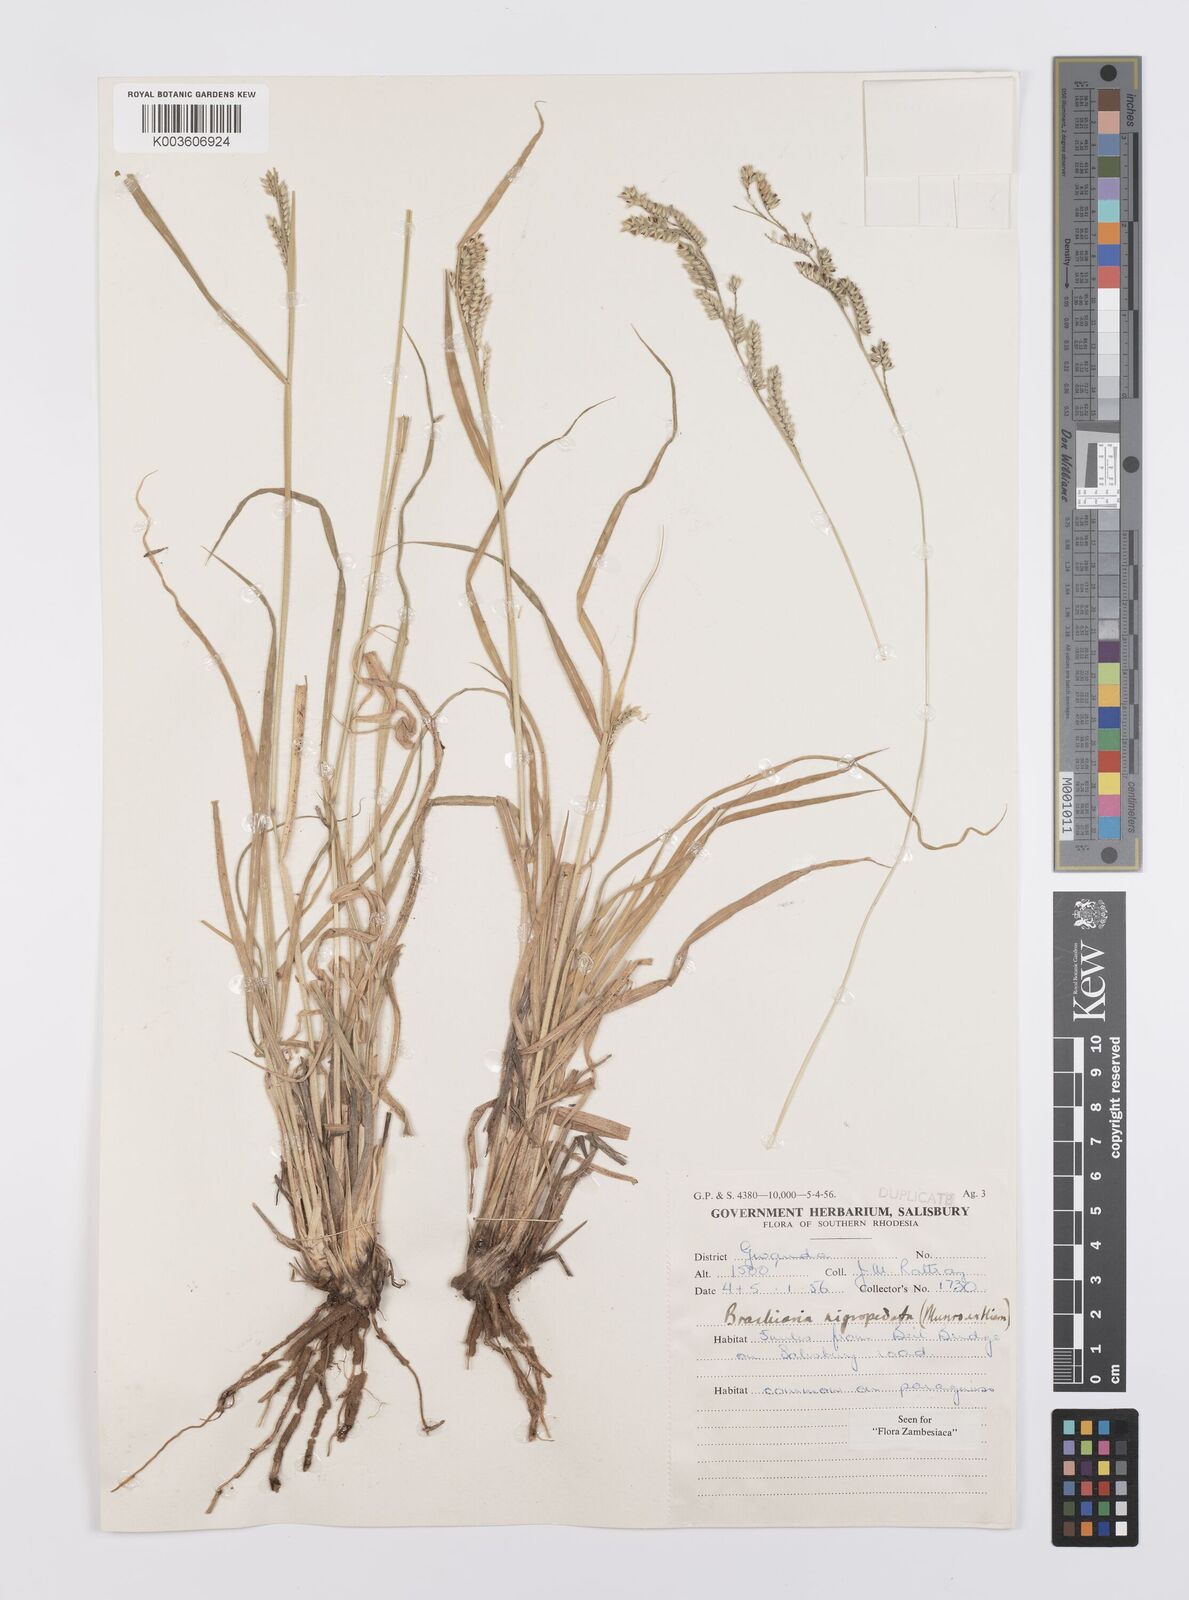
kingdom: Plantae
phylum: Tracheophyta
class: Liliopsida
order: Poales
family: Poaceae
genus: Urochloa
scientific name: Urochloa nigropedata
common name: Spotted signal grass
